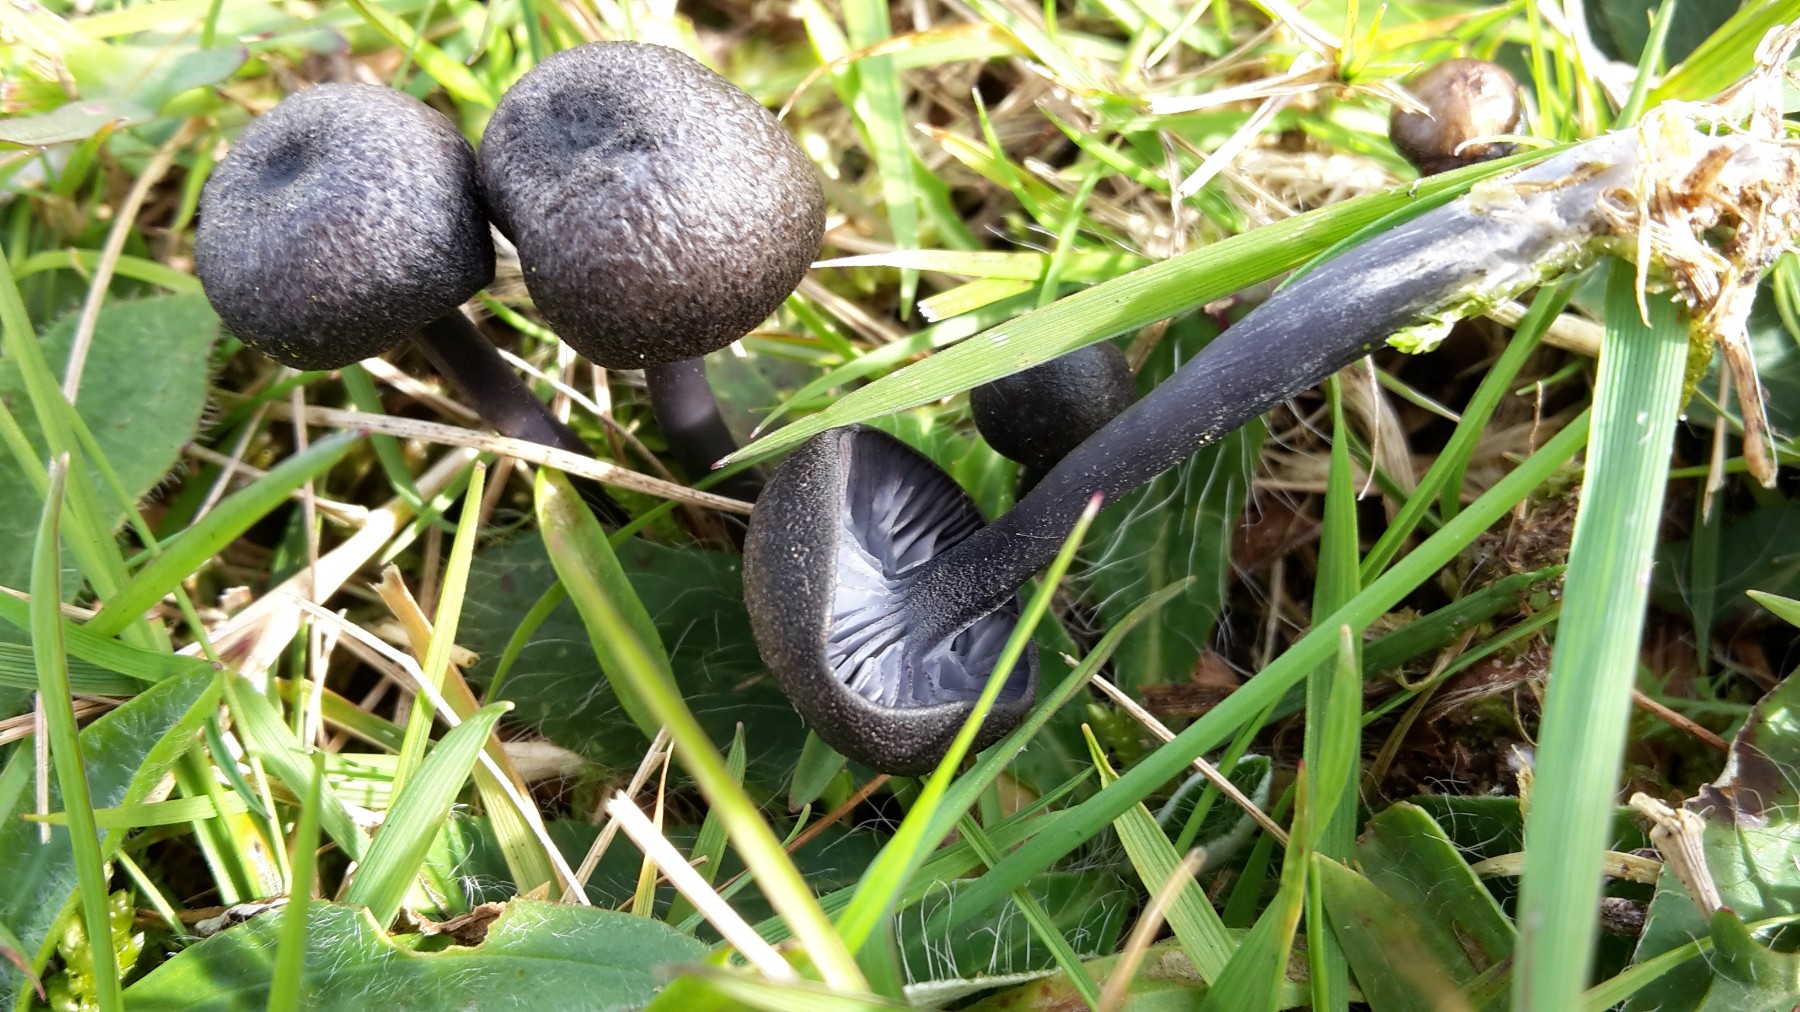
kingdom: Fungi
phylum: Basidiomycota
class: Agaricomycetes
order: Agaricales
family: Entolomataceae
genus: Entoloma
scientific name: Entoloma
